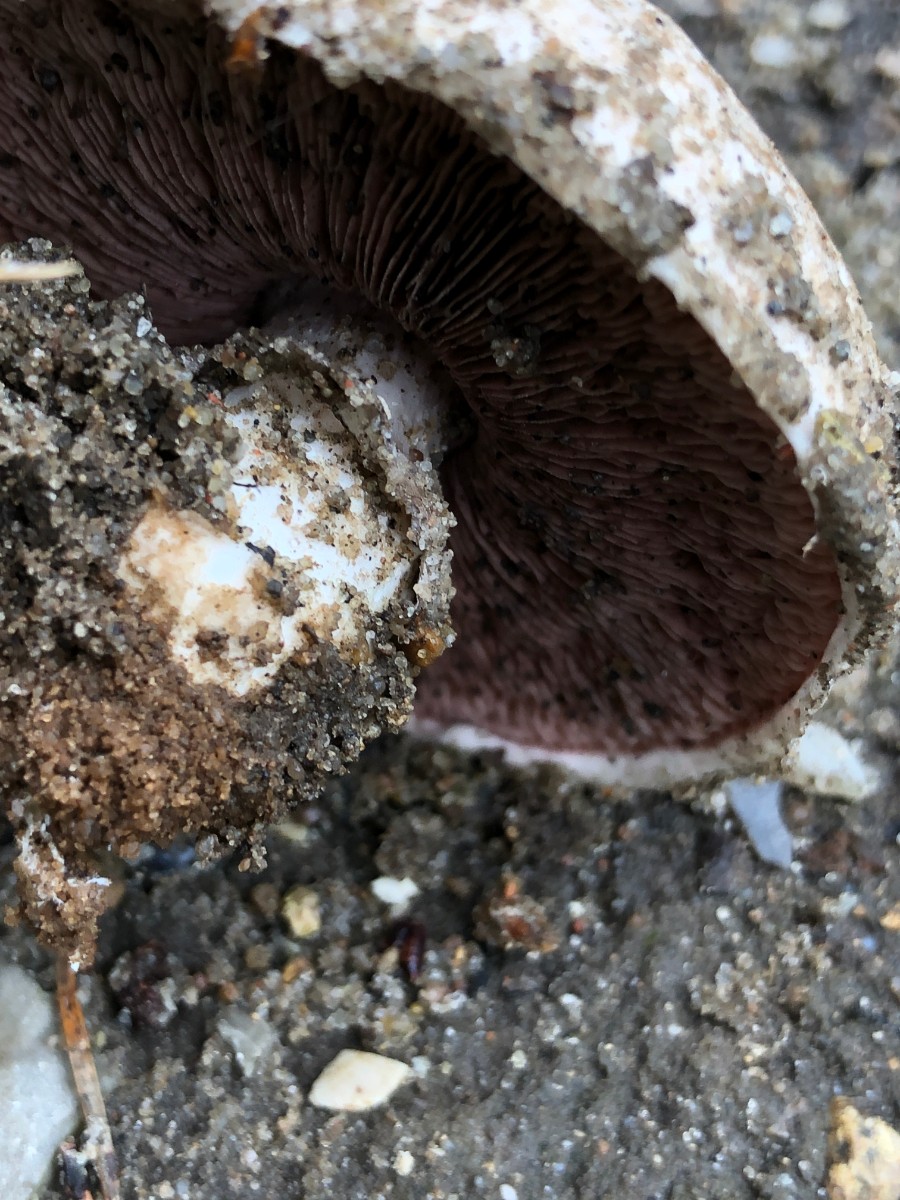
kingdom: Fungi
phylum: Basidiomycota
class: Agaricomycetes
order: Agaricales
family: Agaricaceae
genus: Agaricus
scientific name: Agaricus
